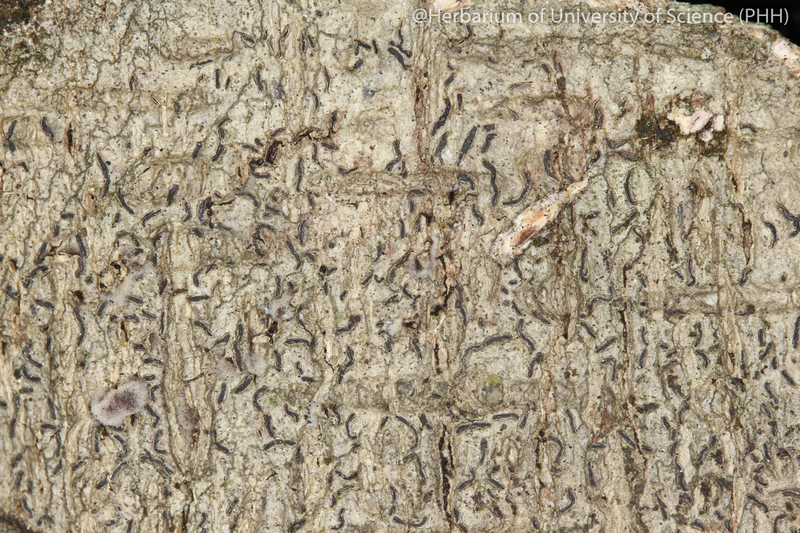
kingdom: Fungi
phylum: Ascomycota
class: Lecanoromycetes
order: Ostropales
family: Graphidaceae
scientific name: Graphidaceae
